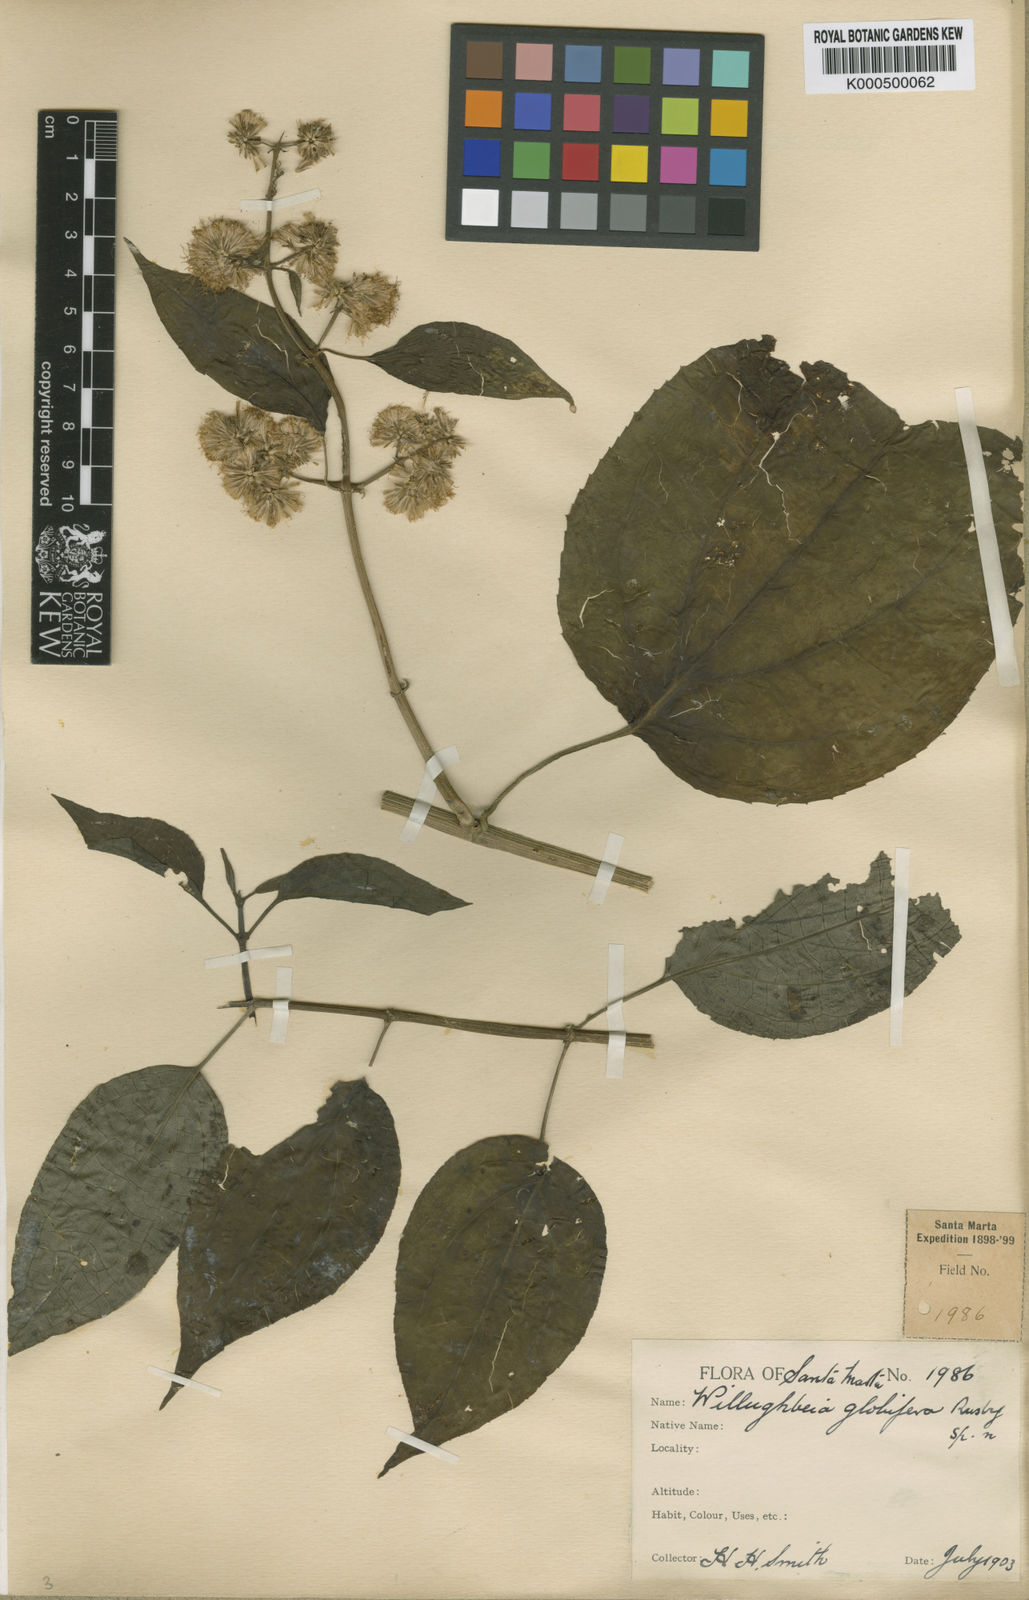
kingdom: Plantae
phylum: Tracheophyta
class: Magnoliopsida
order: Asterales
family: Asteraceae
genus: Mikania
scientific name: Mikania
